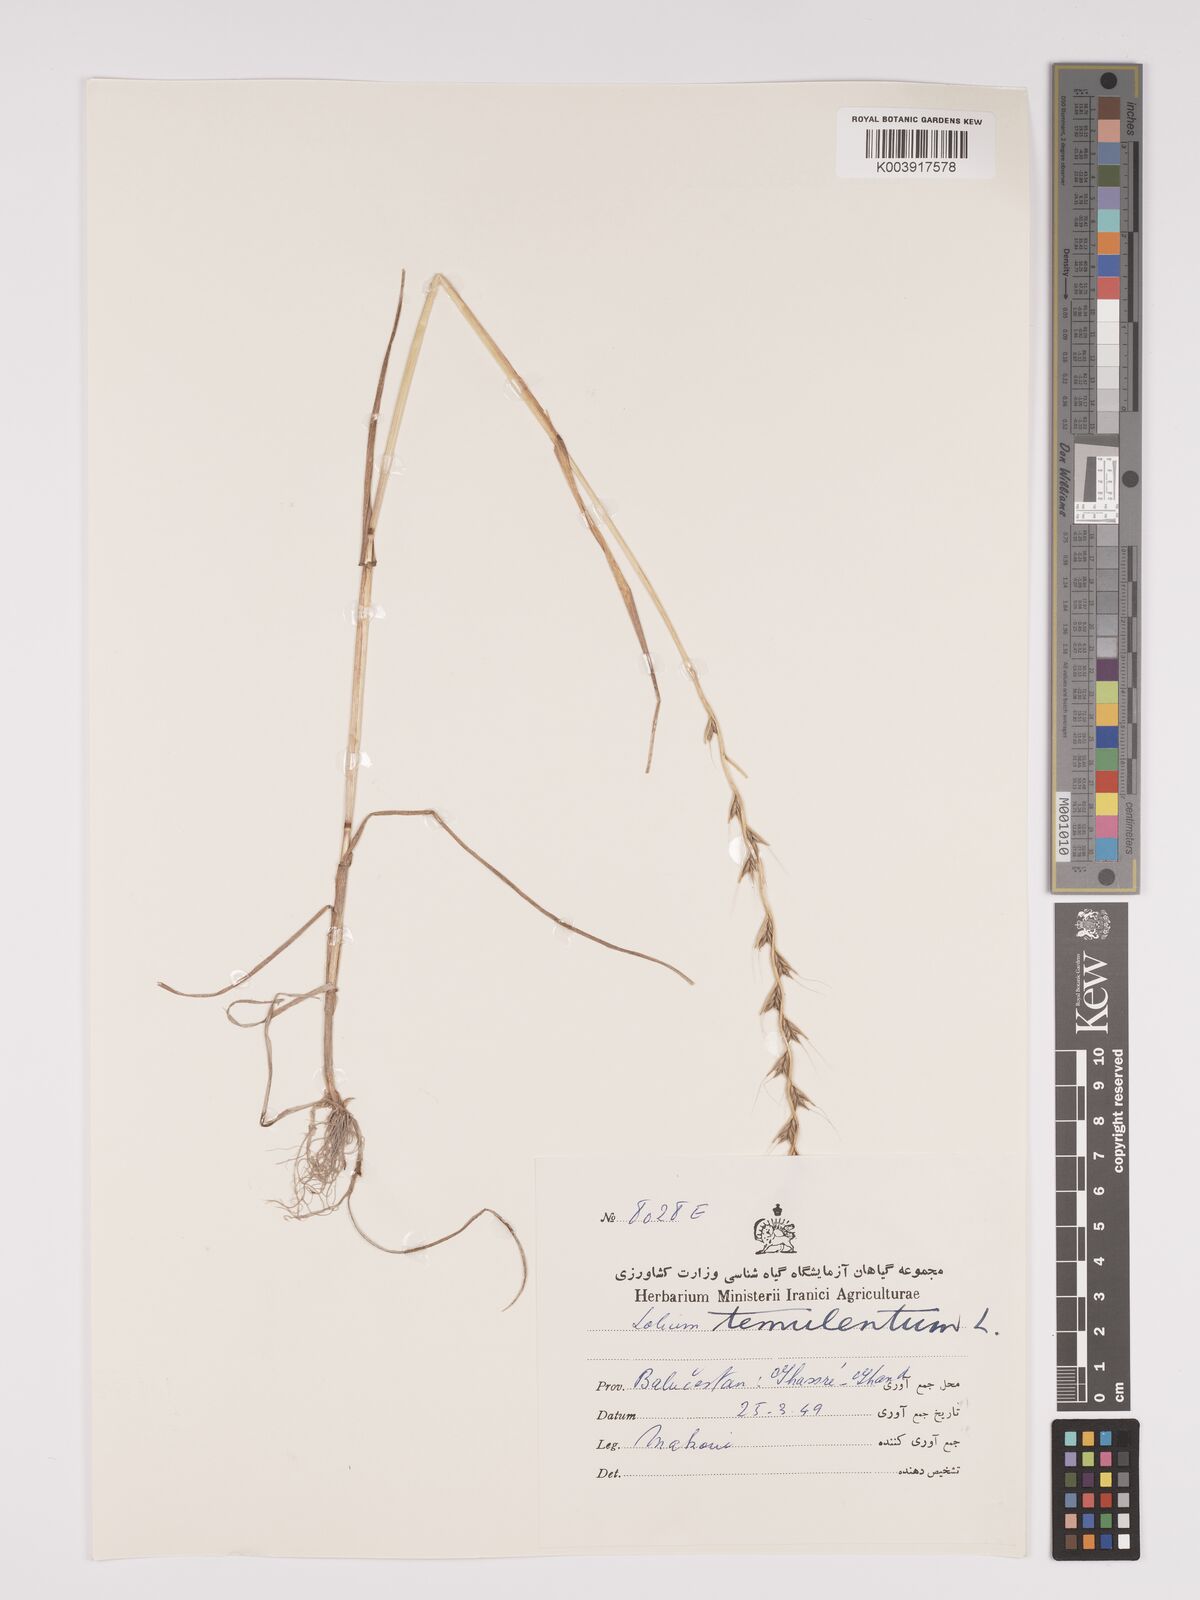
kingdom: Plantae
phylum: Tracheophyta
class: Liliopsida
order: Poales
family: Poaceae
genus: Lolium
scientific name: Lolium temulentum
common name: Darnel
